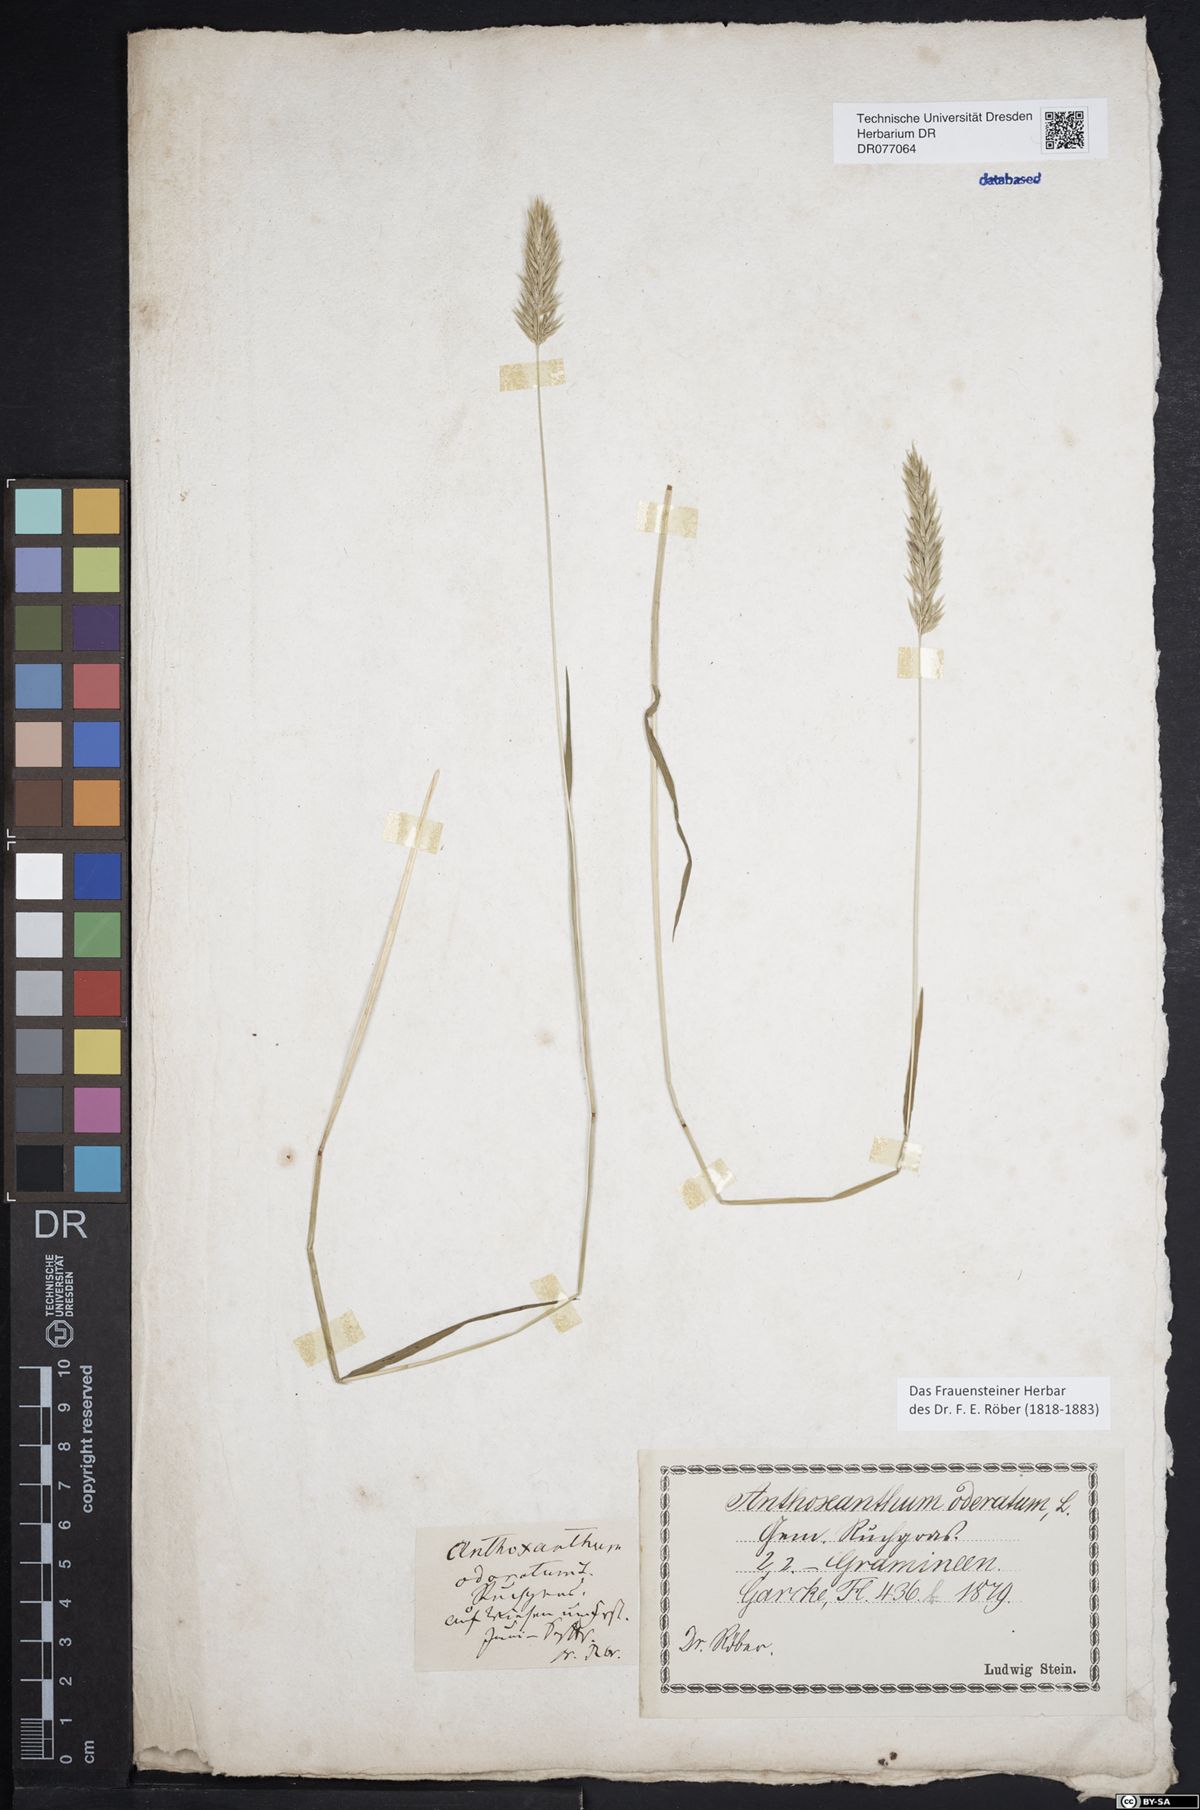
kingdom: Plantae
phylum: Tracheophyta
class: Liliopsida
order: Poales
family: Poaceae
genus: Anthoxanthum
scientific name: Anthoxanthum odoratum
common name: Sweet vernalgrass
